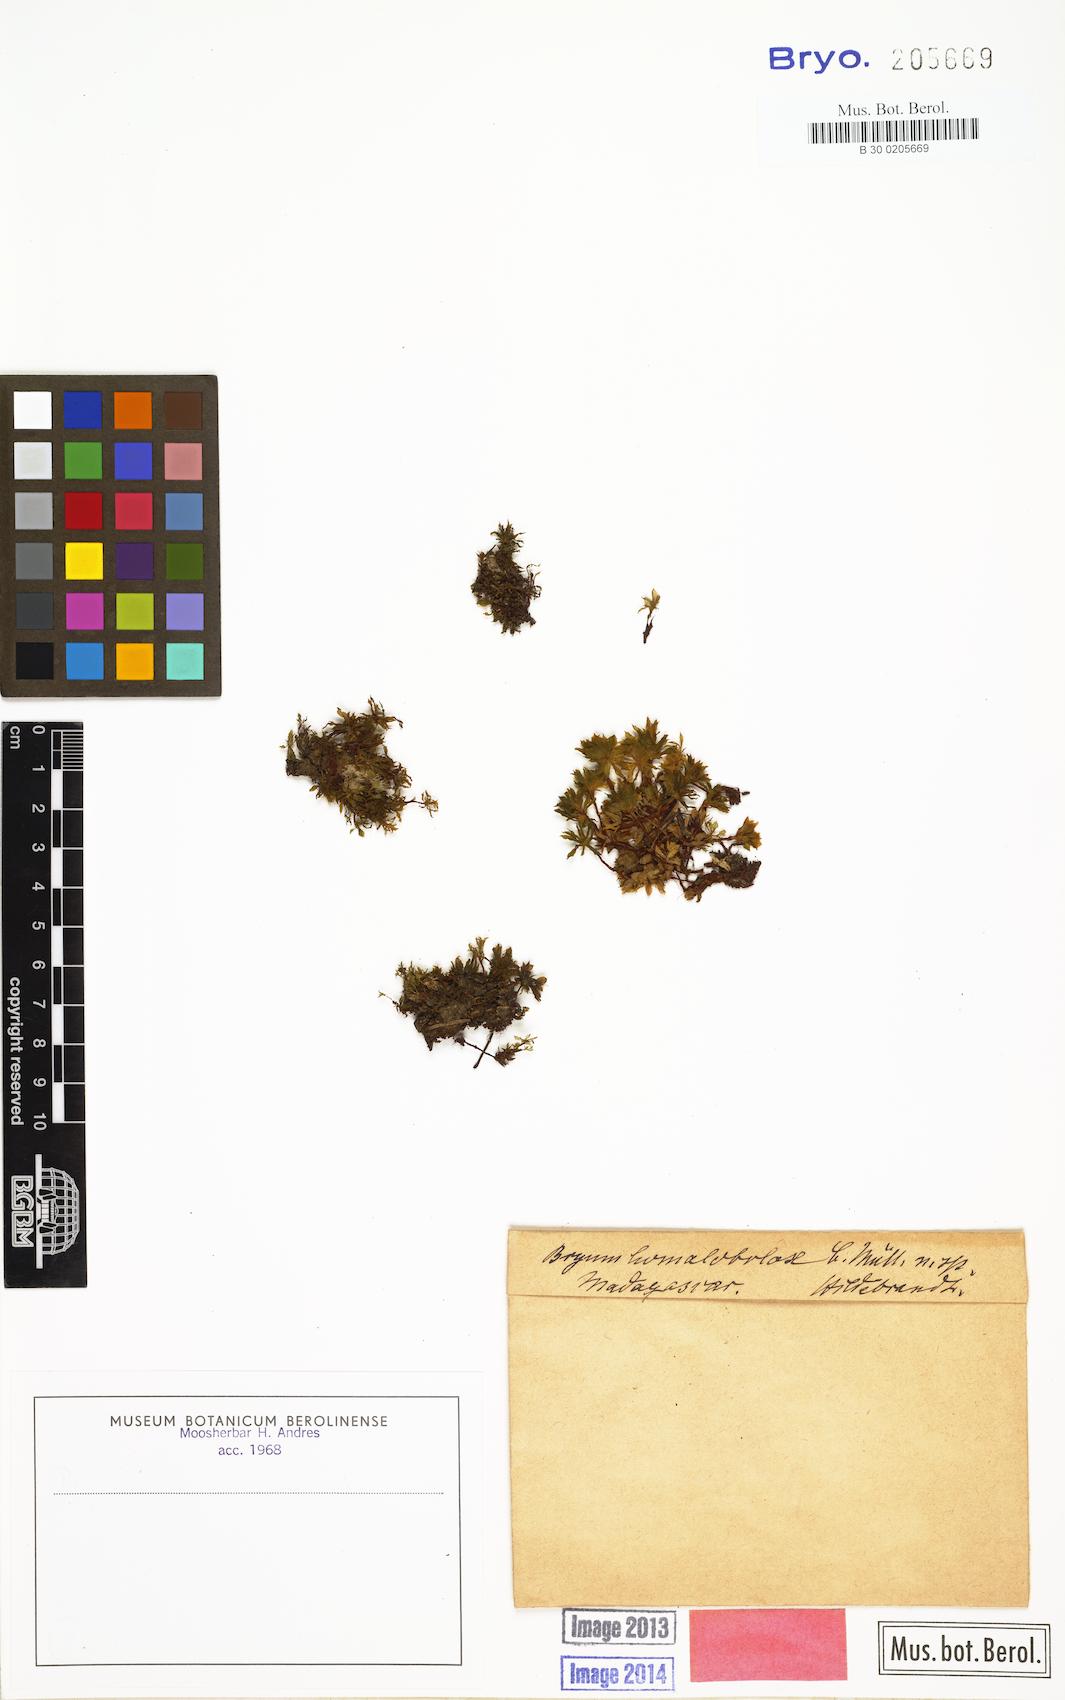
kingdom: Plantae
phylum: Bryophyta
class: Bryopsida
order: Bryales
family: Bryaceae
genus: Rosulabryum
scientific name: Rosulabryum erythrocaulon
